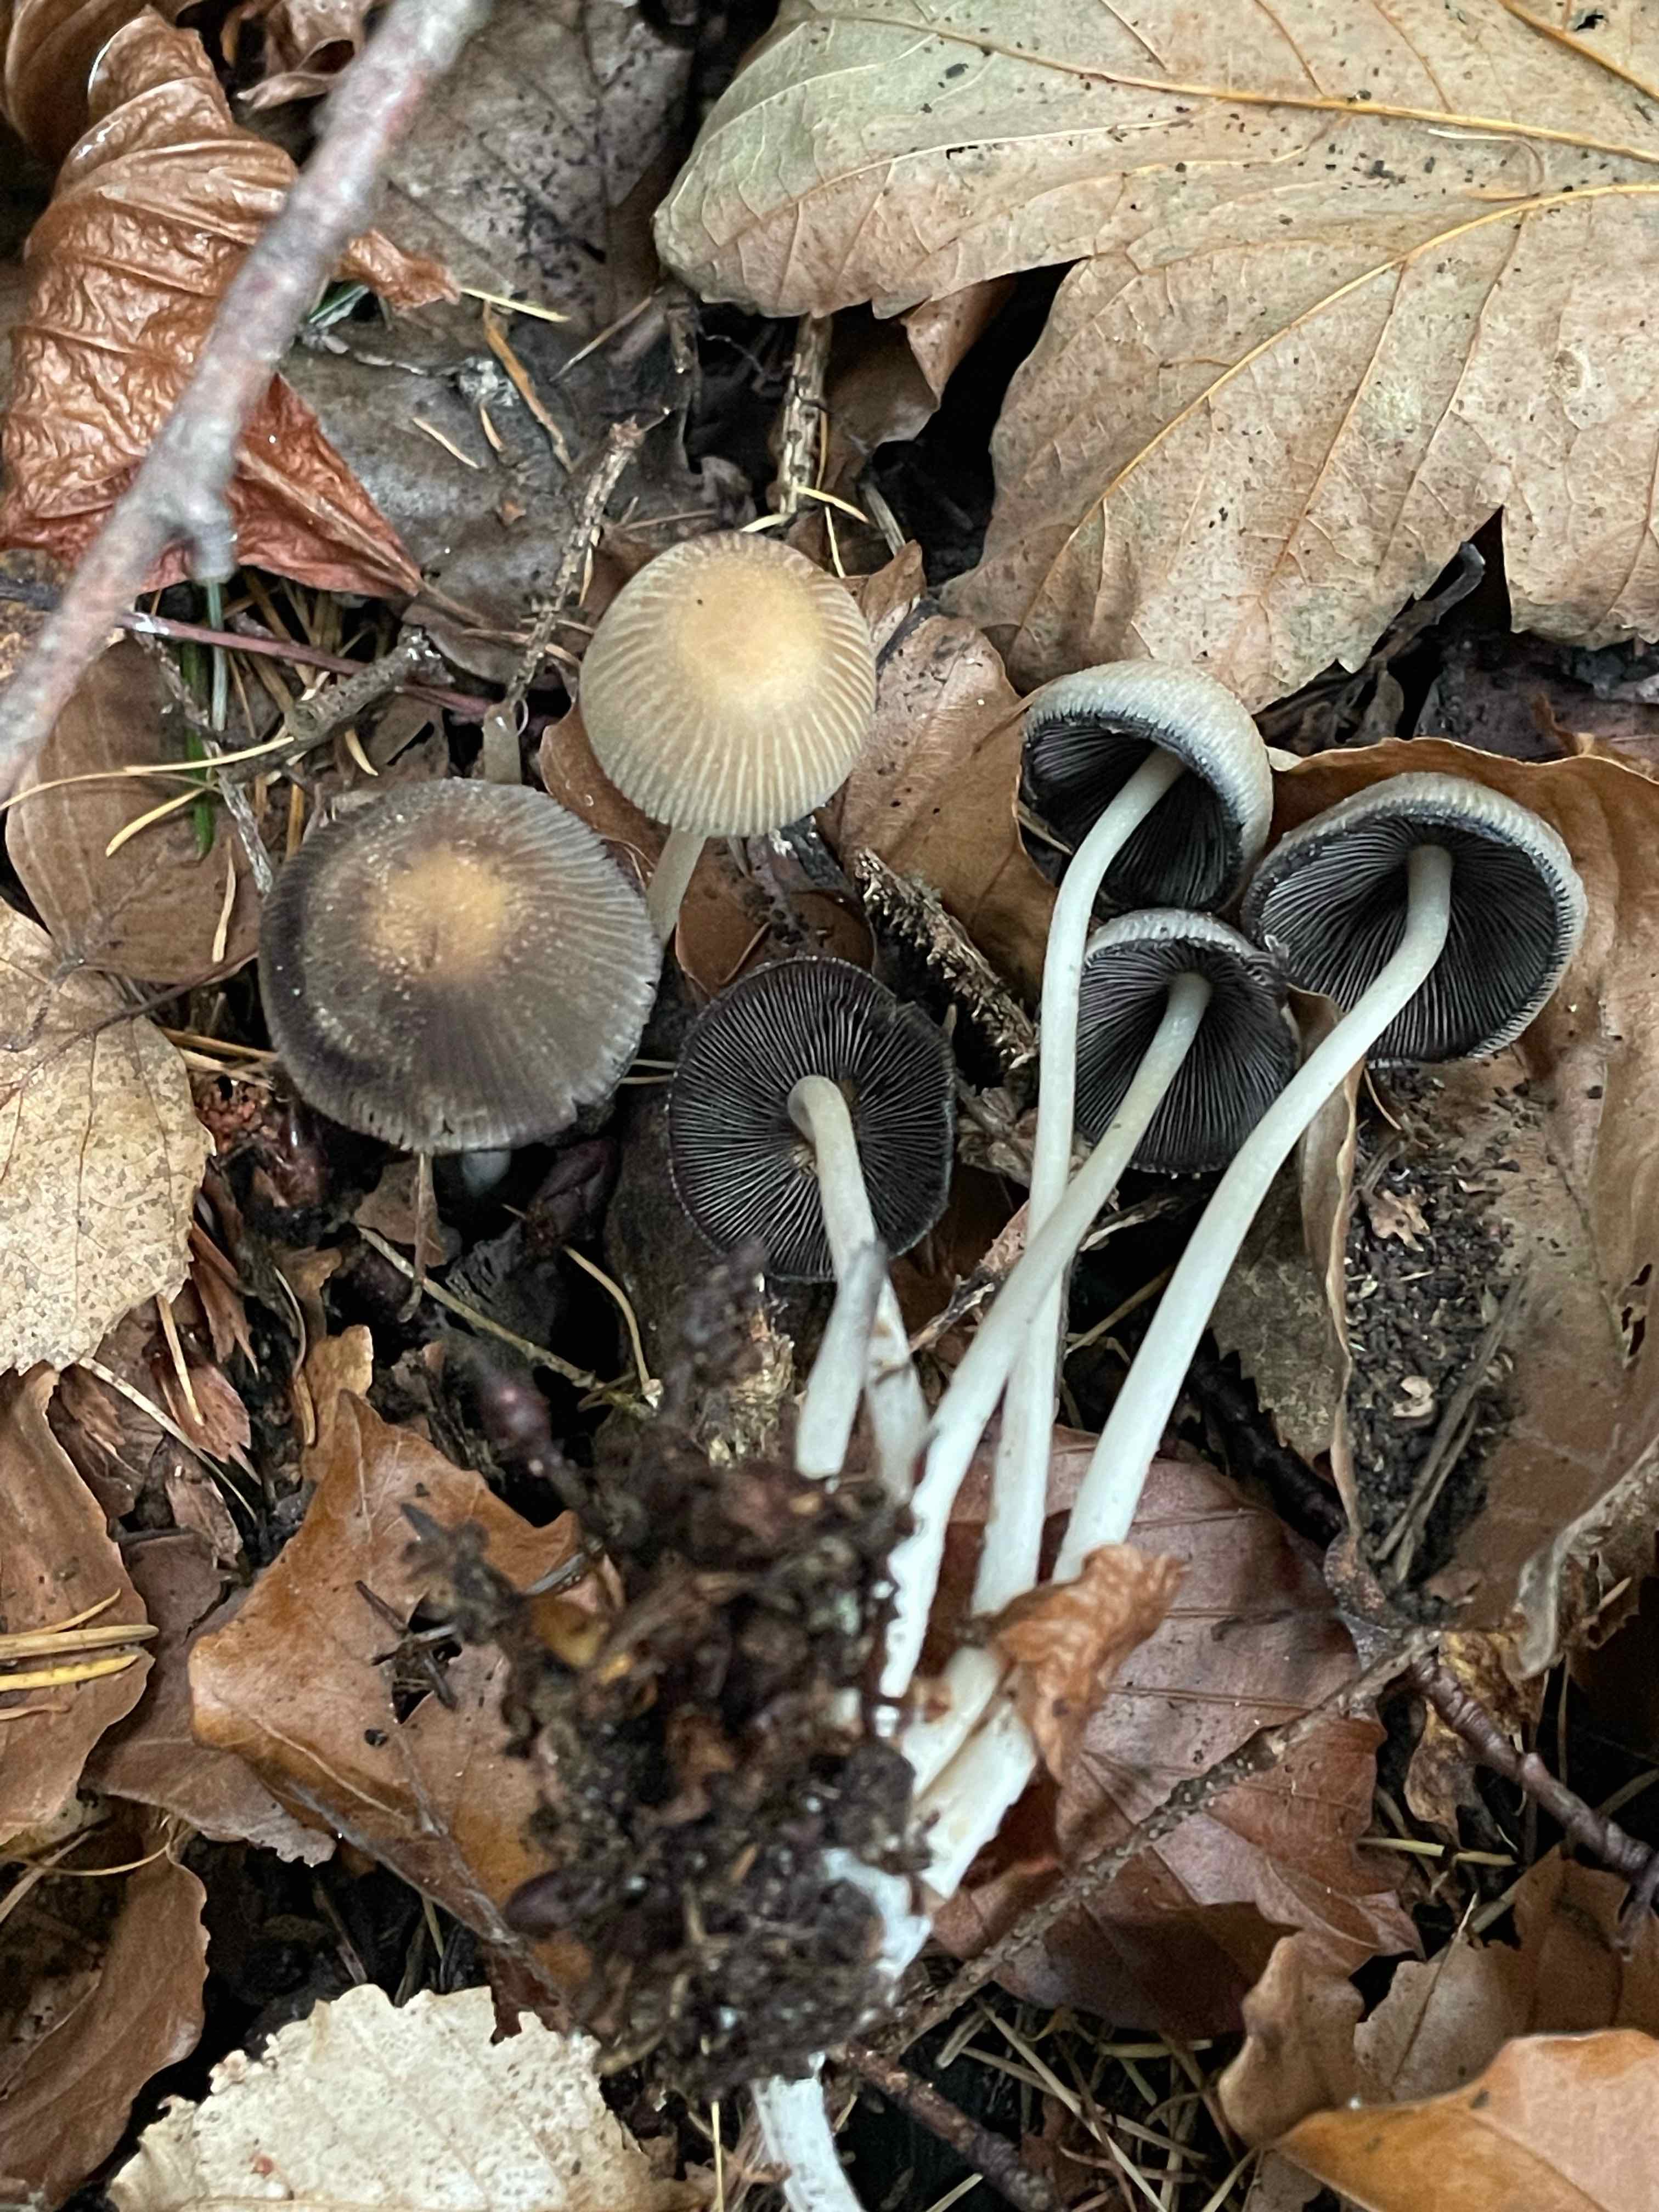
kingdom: Fungi
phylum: Basidiomycota
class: Agaricomycetes
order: Agaricales
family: Psathyrellaceae
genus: Coprinellus
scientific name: Coprinellus micaceus
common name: glimmer-blækhat
